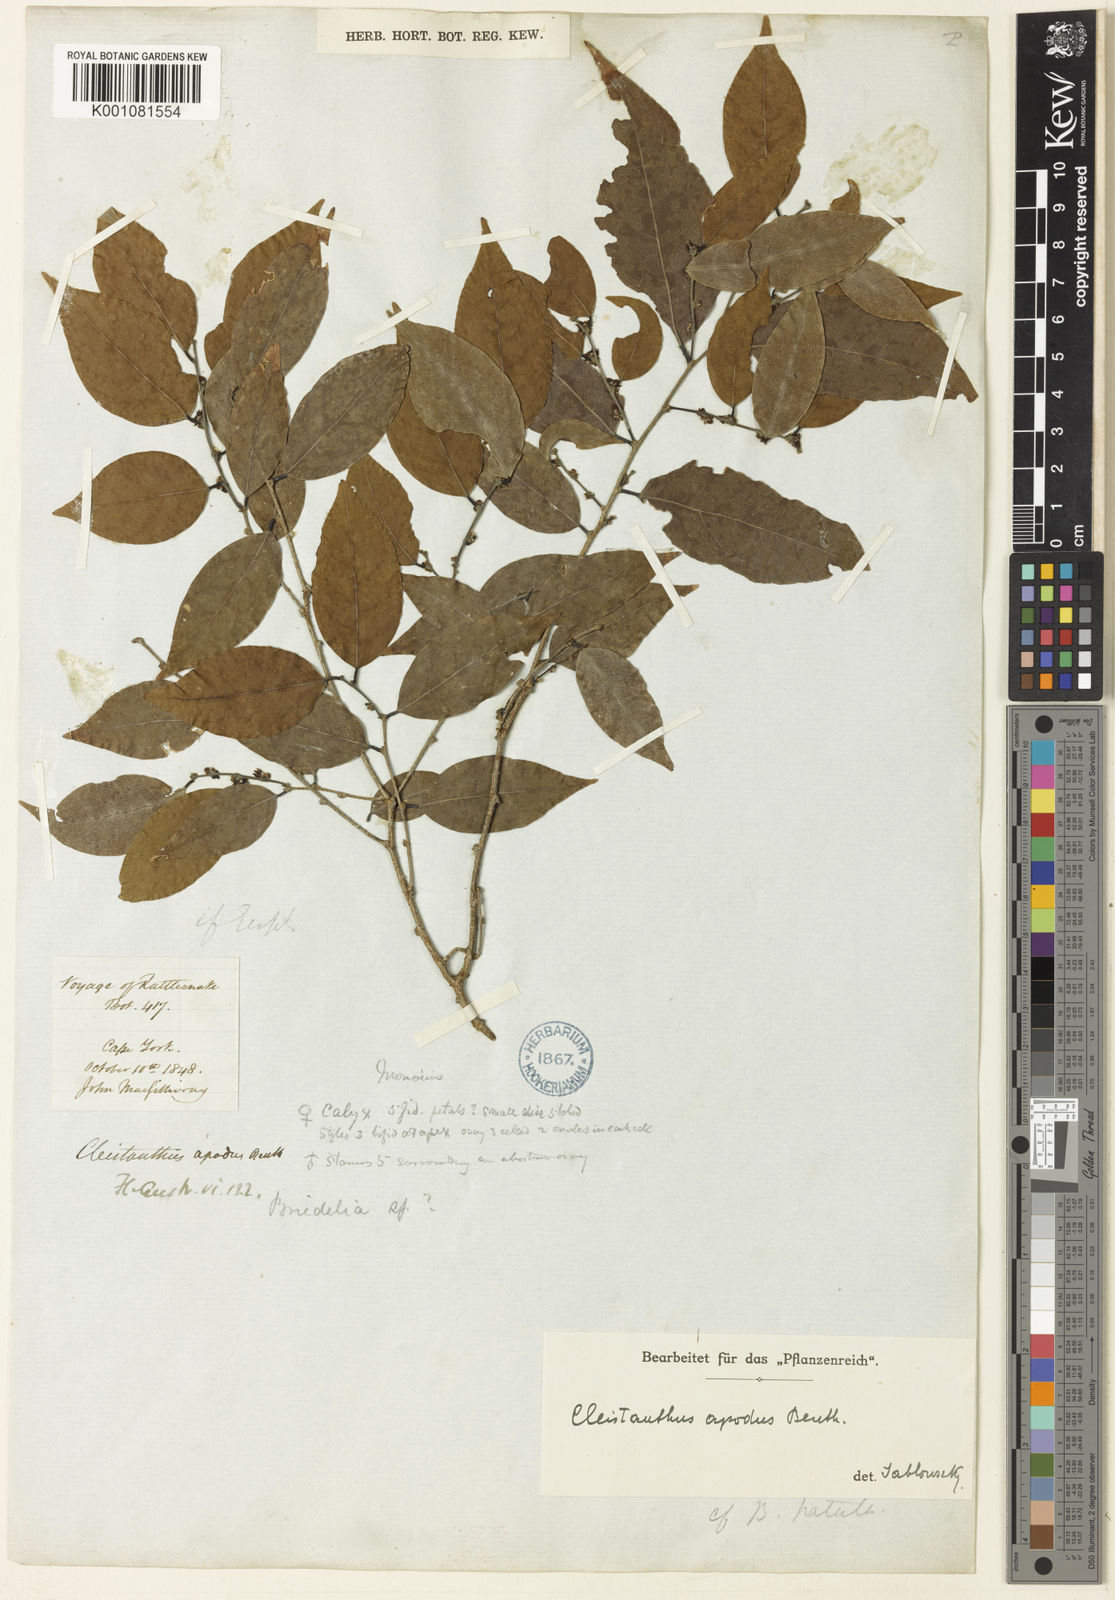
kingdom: Plantae
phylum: Tracheophyta
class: Magnoliopsida
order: Malpighiales
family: Phyllanthaceae
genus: Cleistanthus
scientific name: Cleistanthus apodus
